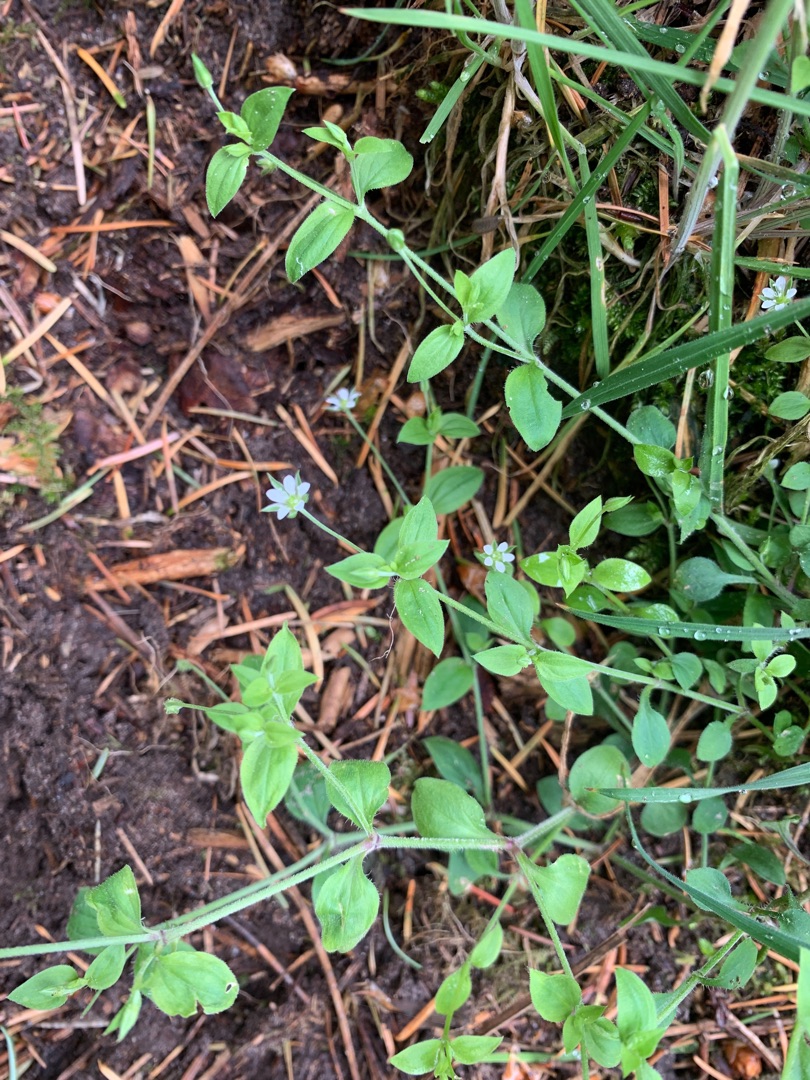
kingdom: Plantae
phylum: Tracheophyta
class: Magnoliopsida
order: Caryophyllales
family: Caryophyllaceae
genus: Moehringia
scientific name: Moehringia trinervia
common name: Skovarve
